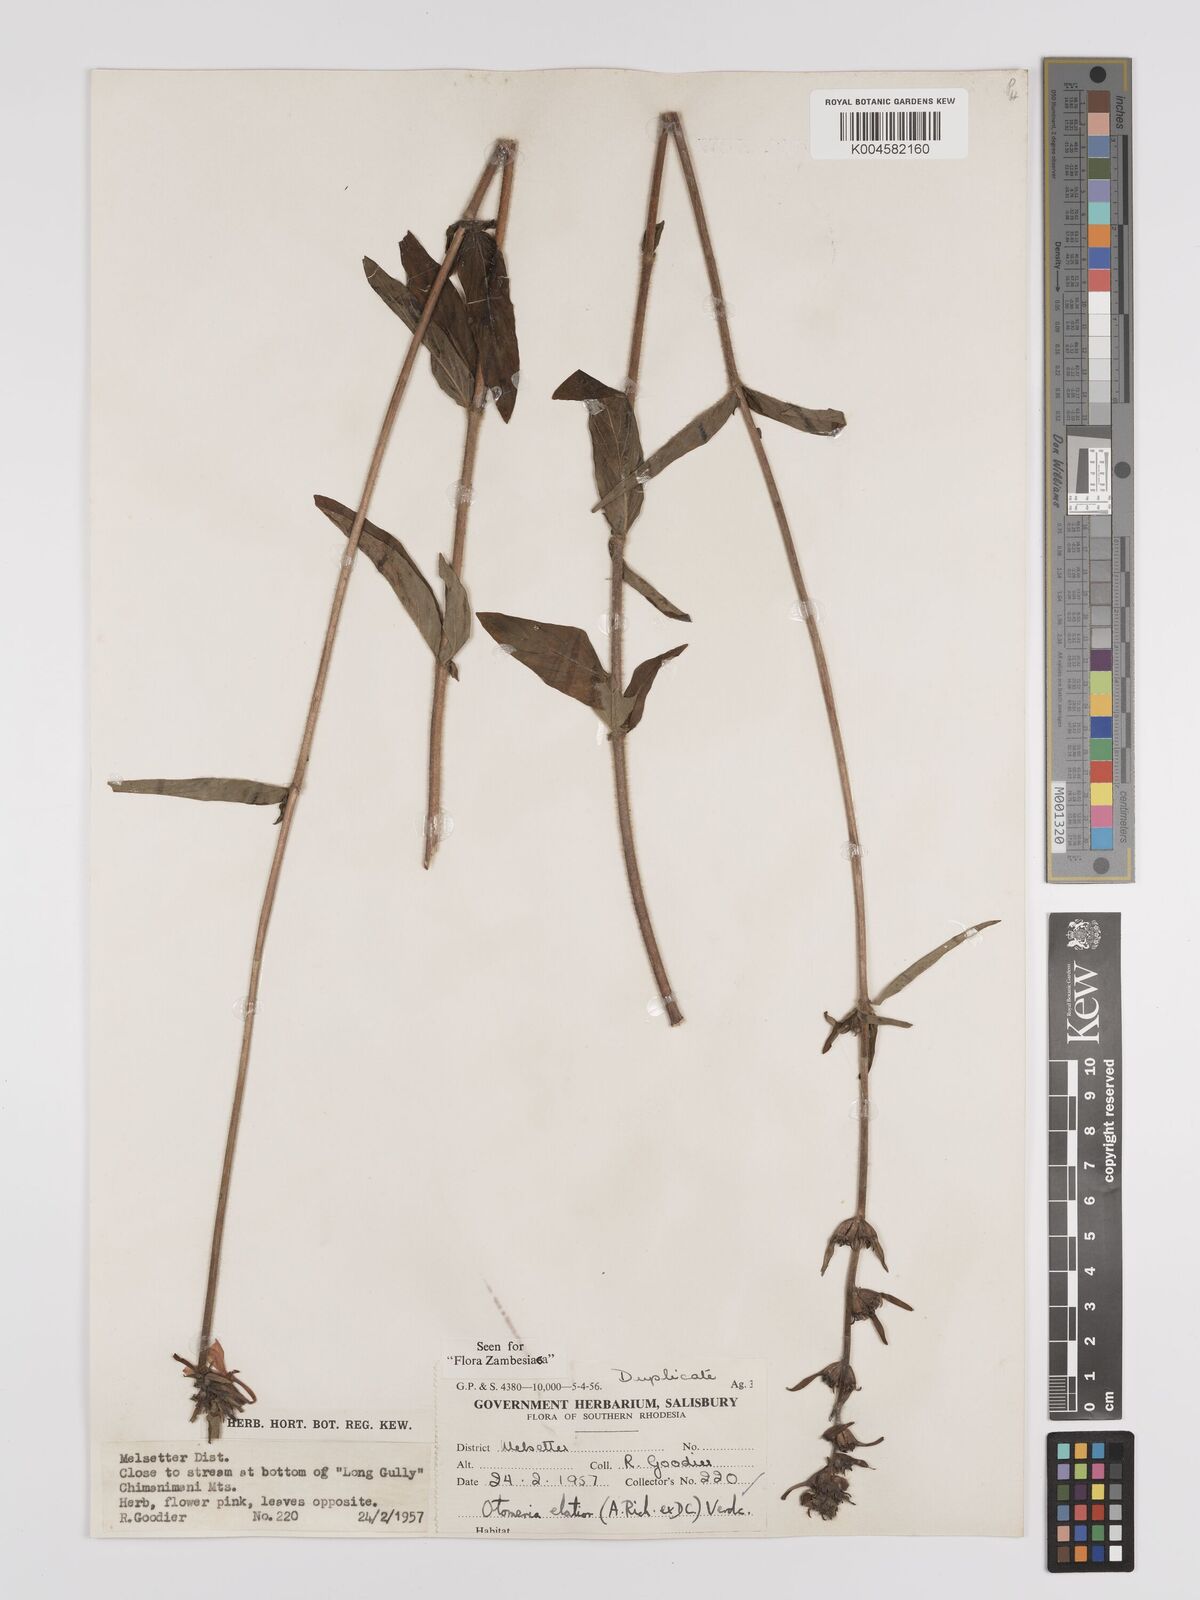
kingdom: Plantae
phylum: Tracheophyta
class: Magnoliopsida
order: Gentianales
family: Rubiaceae
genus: Otomeria
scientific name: Otomeria elatior
